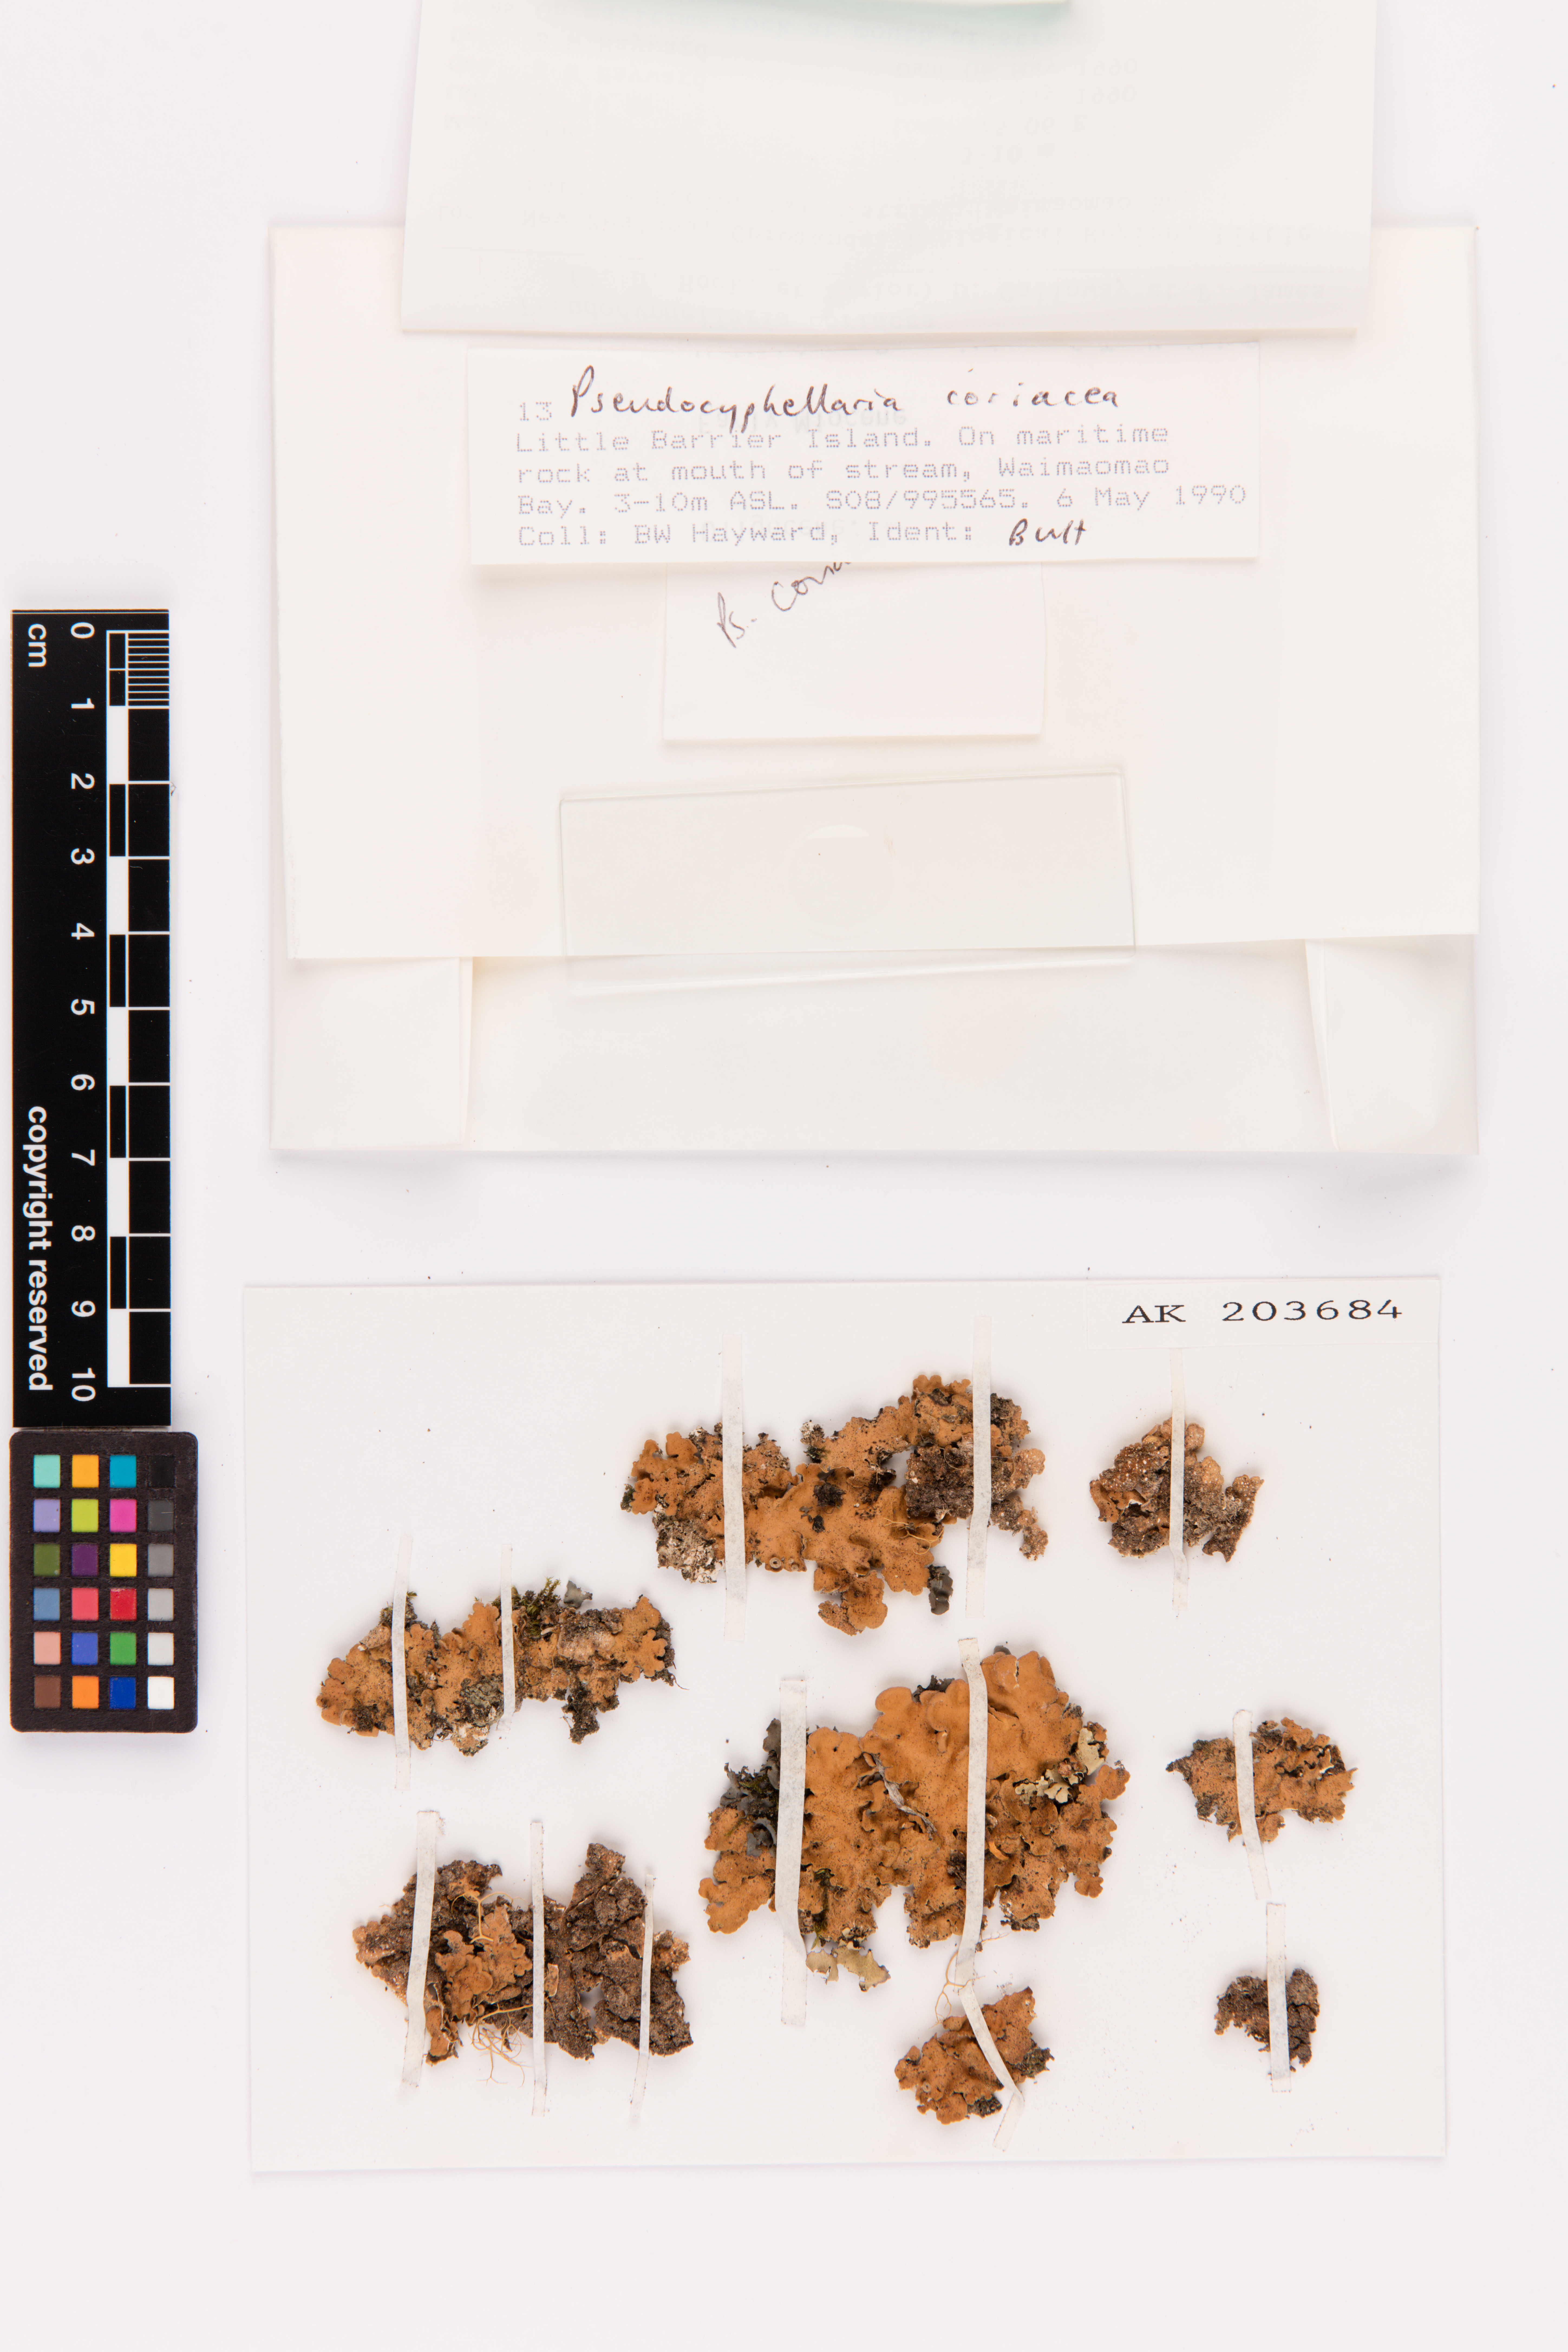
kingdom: Fungi
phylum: Ascomycota
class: Lecanoromycetes
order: Peltigerales
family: Lobariaceae
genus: Pseudocyphellaria
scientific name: Pseudocyphellaria coriacea
